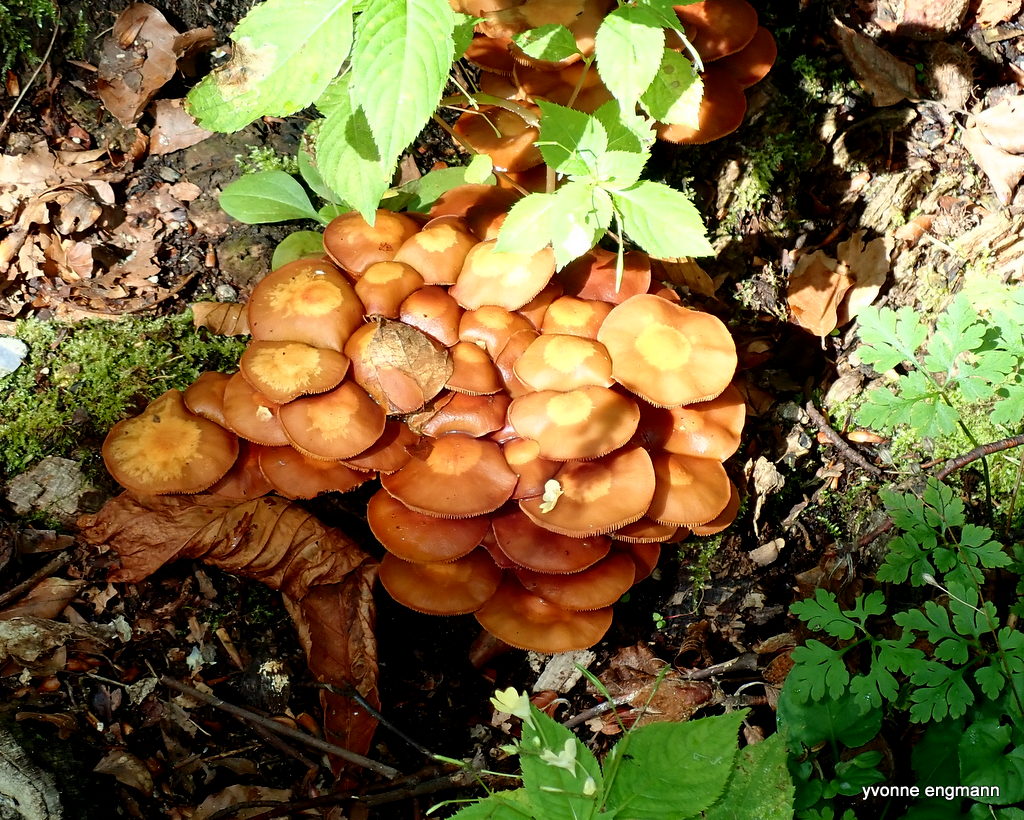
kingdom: Fungi
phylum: Basidiomycota
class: Agaricomycetes
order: Agaricales
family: Strophariaceae
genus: Kuehneromyces
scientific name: Kuehneromyces mutabilis
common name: foranderlig skælhat
